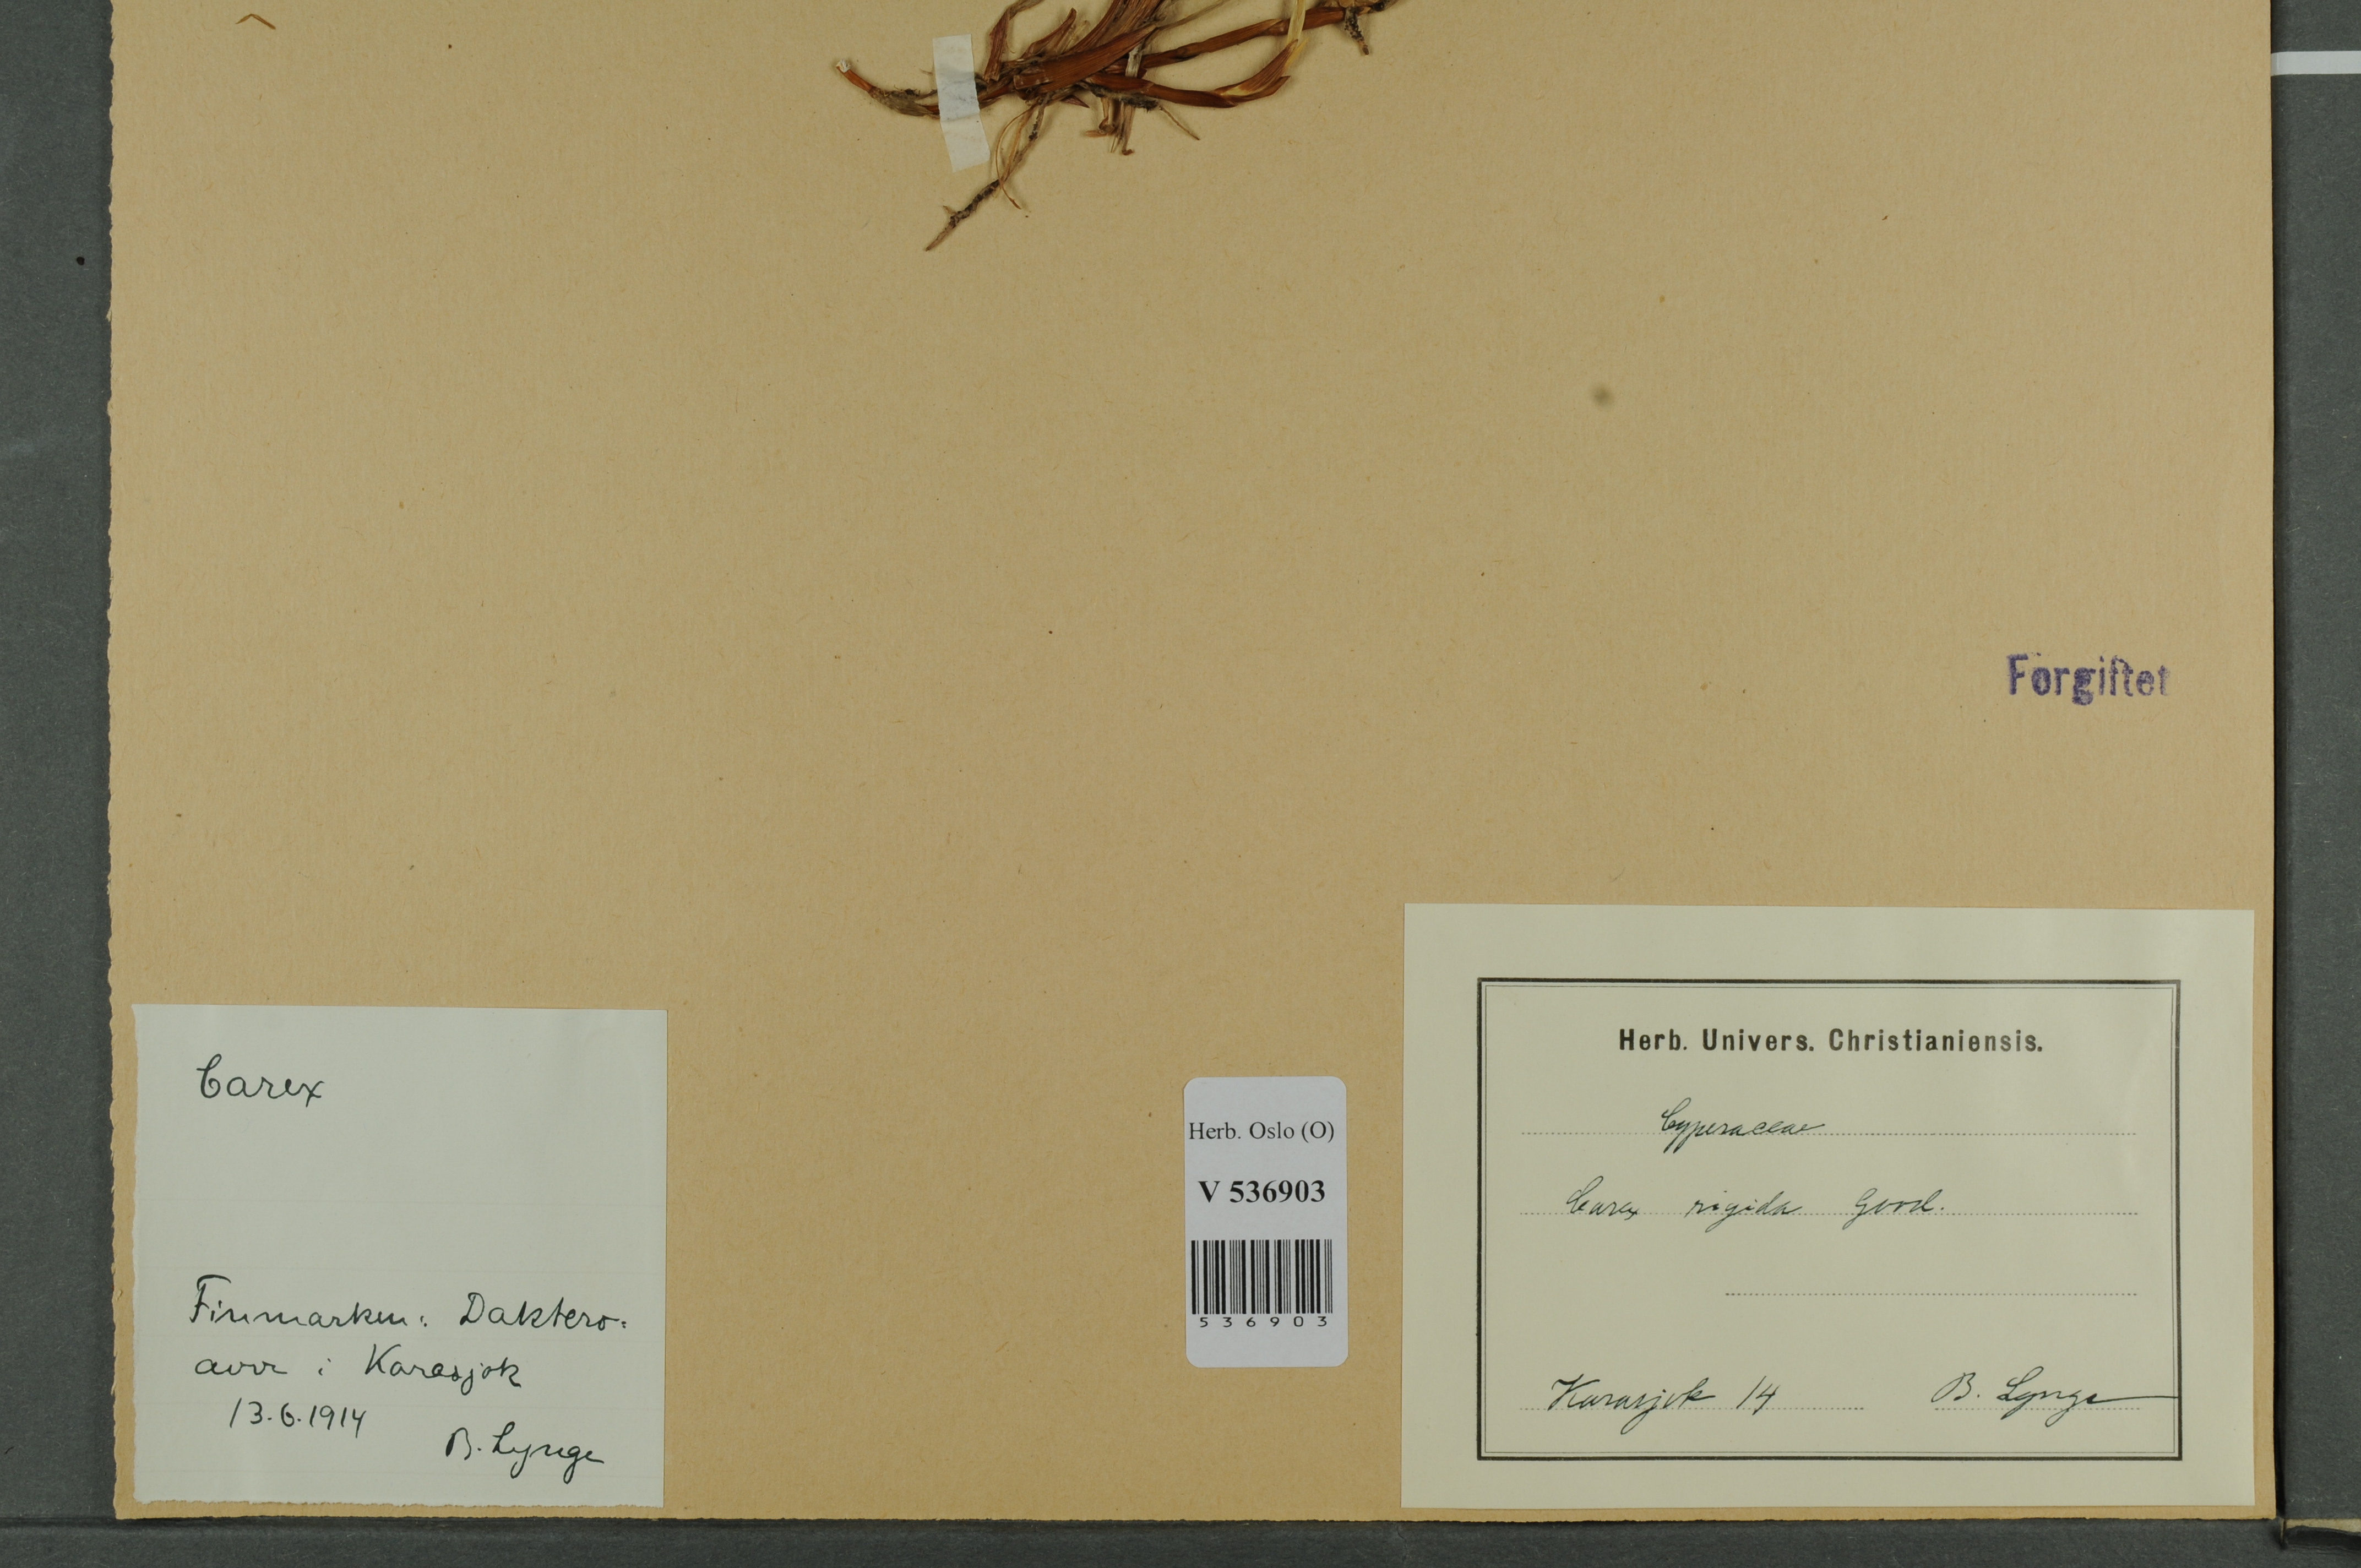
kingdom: Plantae
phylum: Tracheophyta
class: Liliopsida
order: Poales
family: Cyperaceae
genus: Carex
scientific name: Carex dacica
